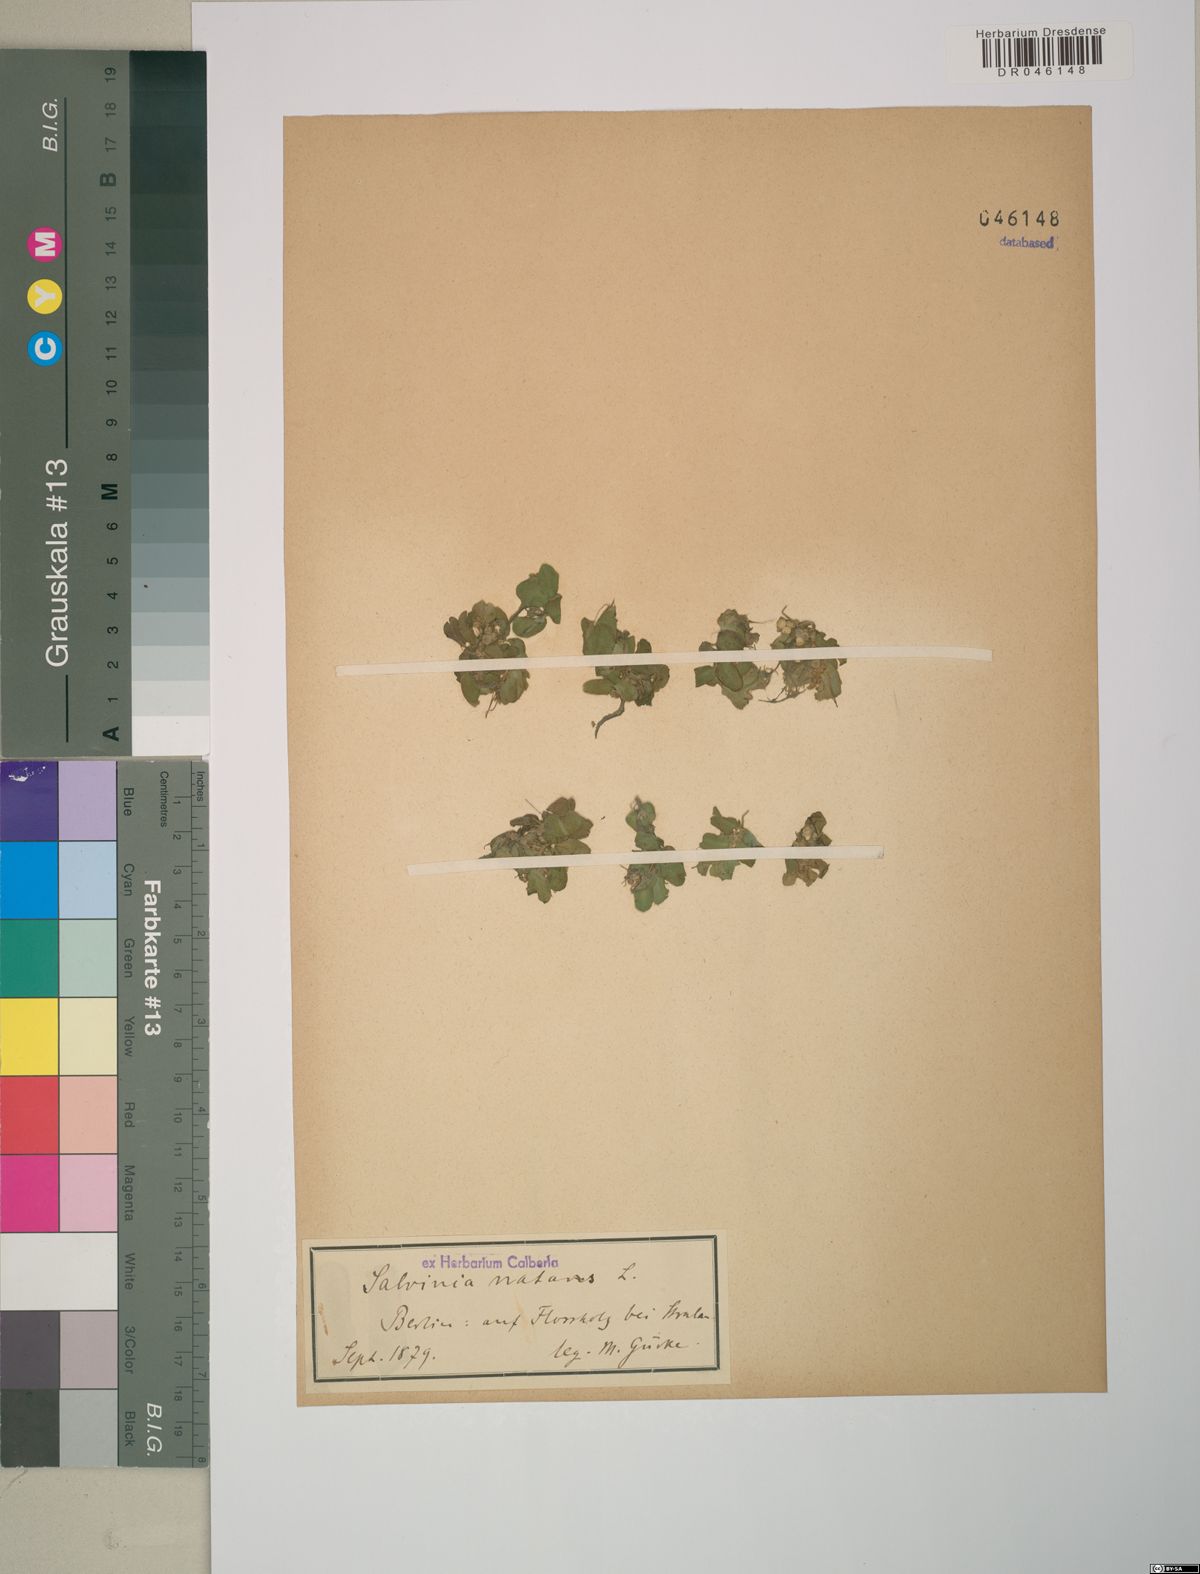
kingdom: Plantae
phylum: Tracheophyta
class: Polypodiopsida
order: Salviniales
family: Salviniaceae
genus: Salvinia
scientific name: Salvinia natans
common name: Floating fern
